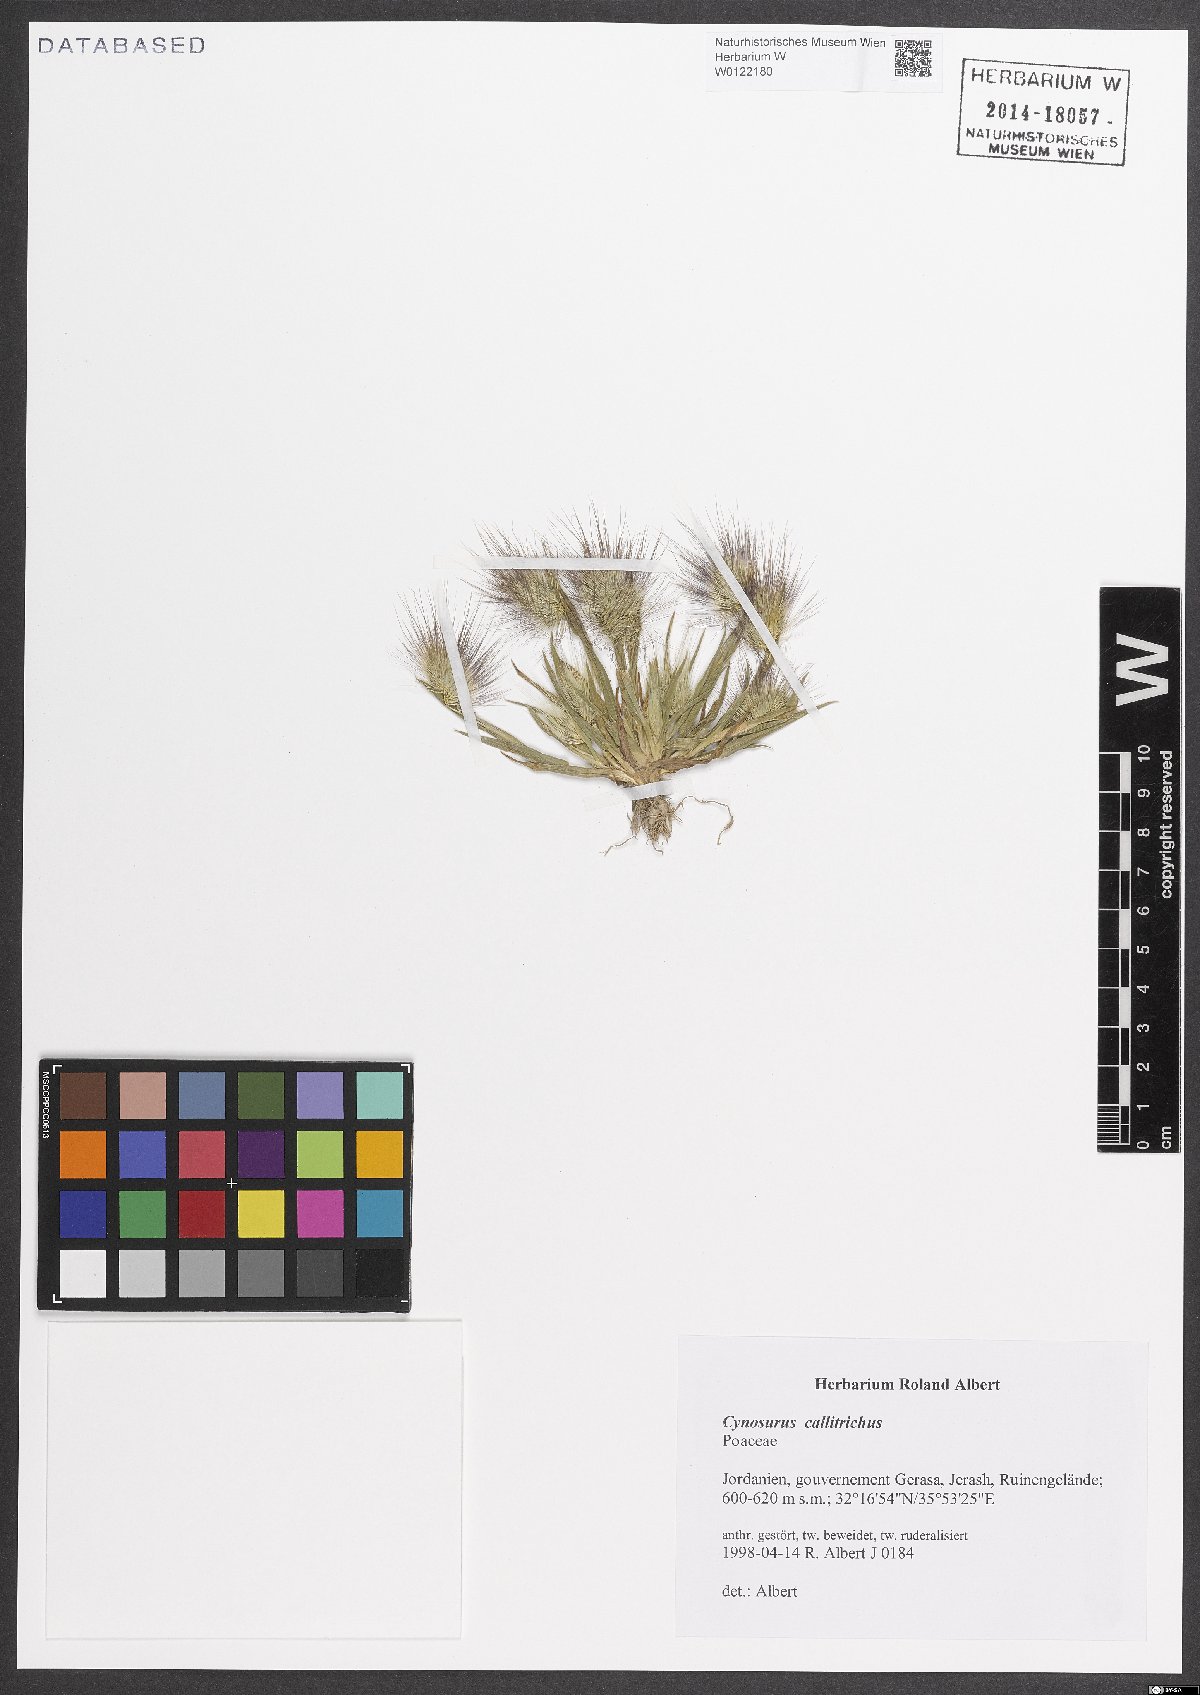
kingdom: Plantae
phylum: Tracheophyta
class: Liliopsida
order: Poales
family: Poaceae
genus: Cynosurus
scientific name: Cynosurus coloratus
